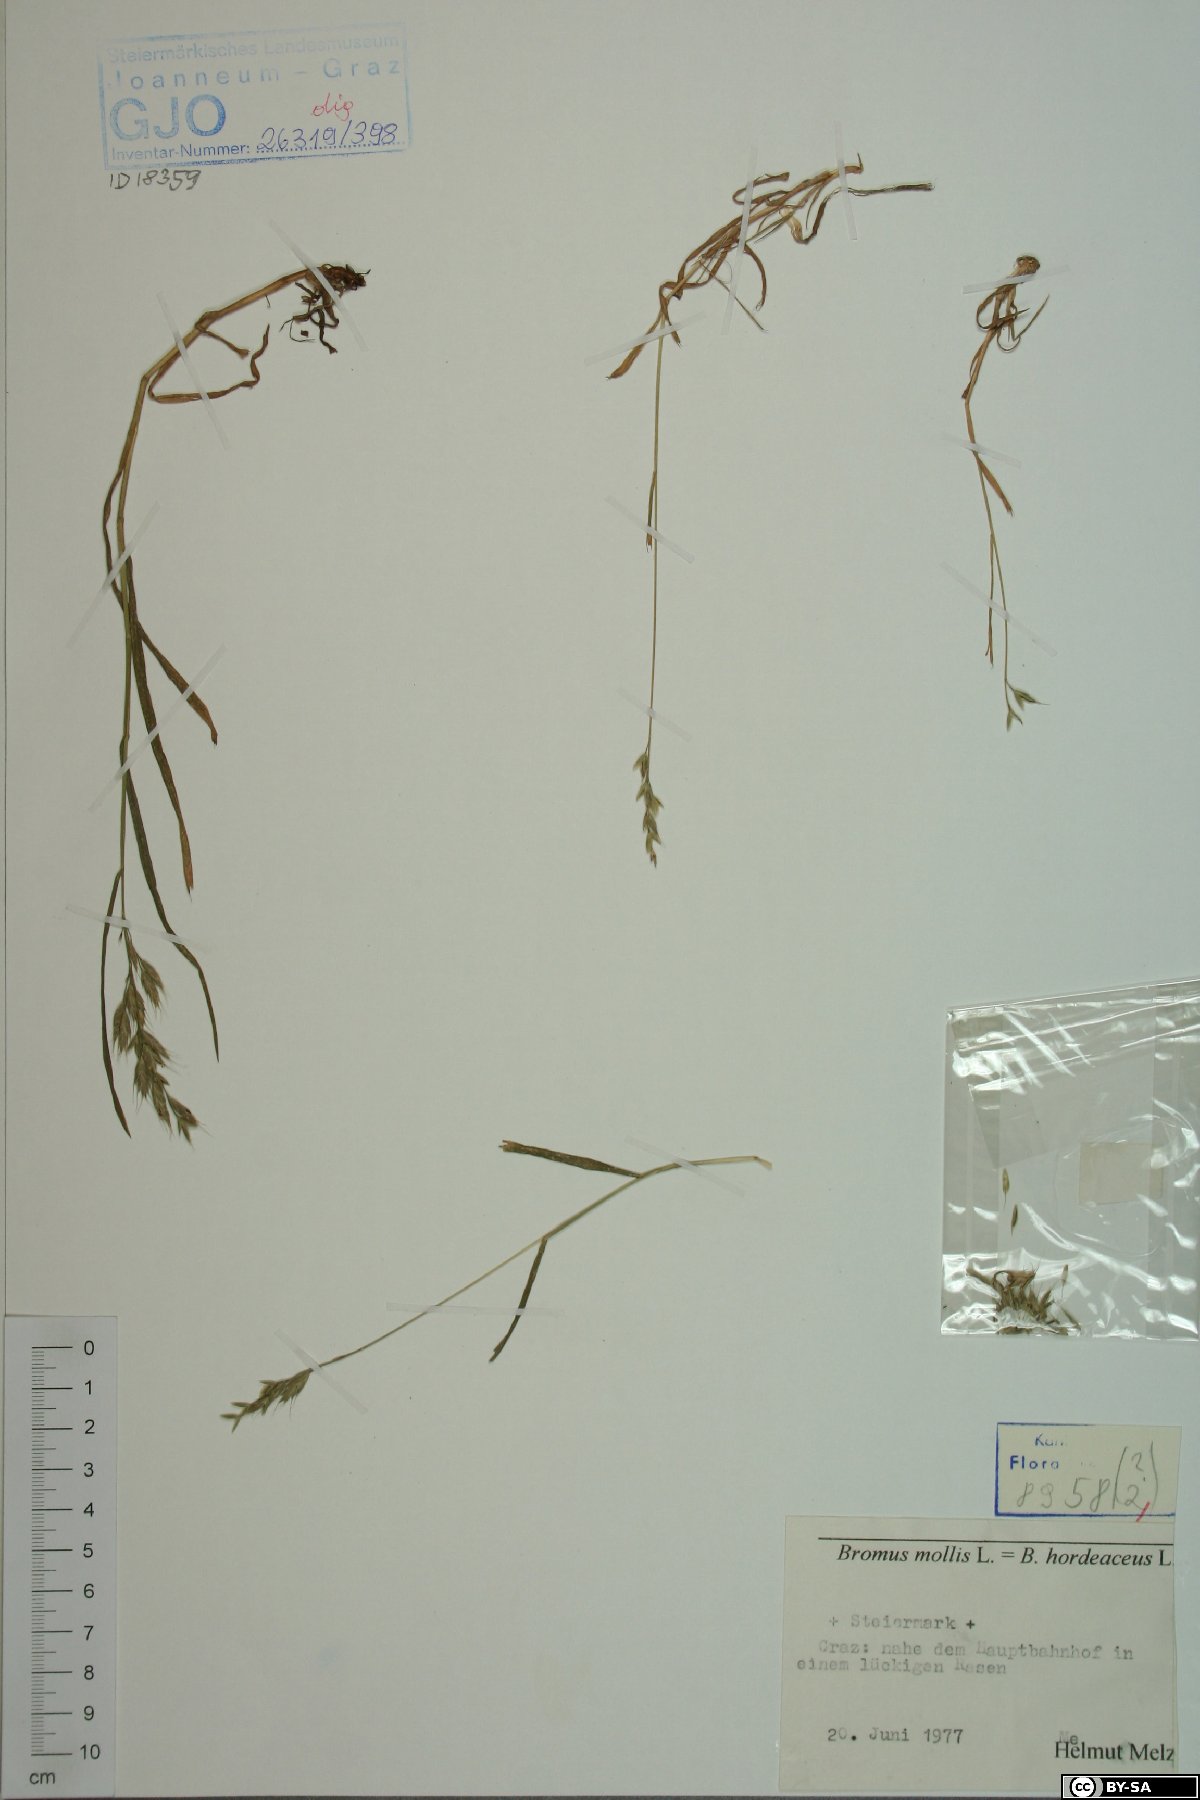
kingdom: Plantae
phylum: Tracheophyta
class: Liliopsida
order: Poales
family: Poaceae
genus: Bromus
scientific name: Bromus hordeaceus
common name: Soft brome
